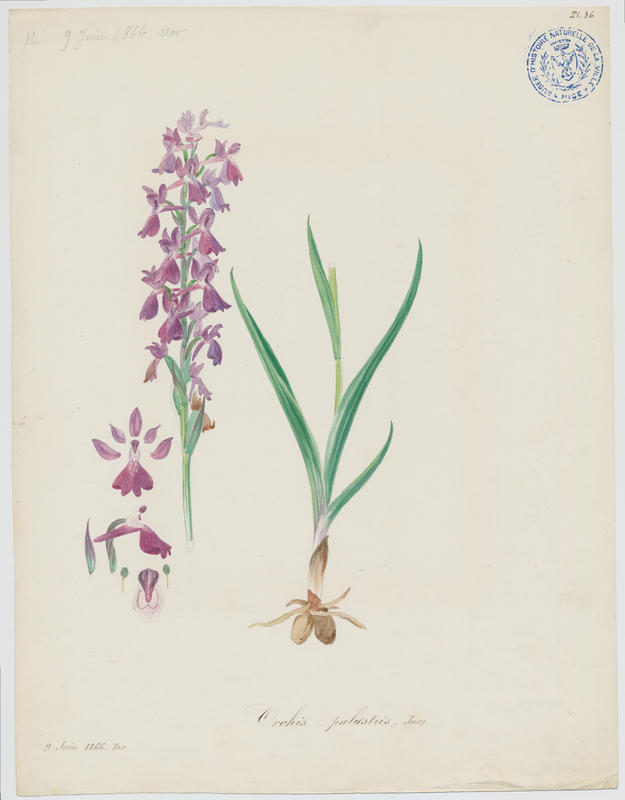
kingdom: Plantae
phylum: Tracheophyta
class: Liliopsida
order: Asparagales
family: Orchidaceae
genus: Anacamptis
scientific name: Anacamptis palustris
